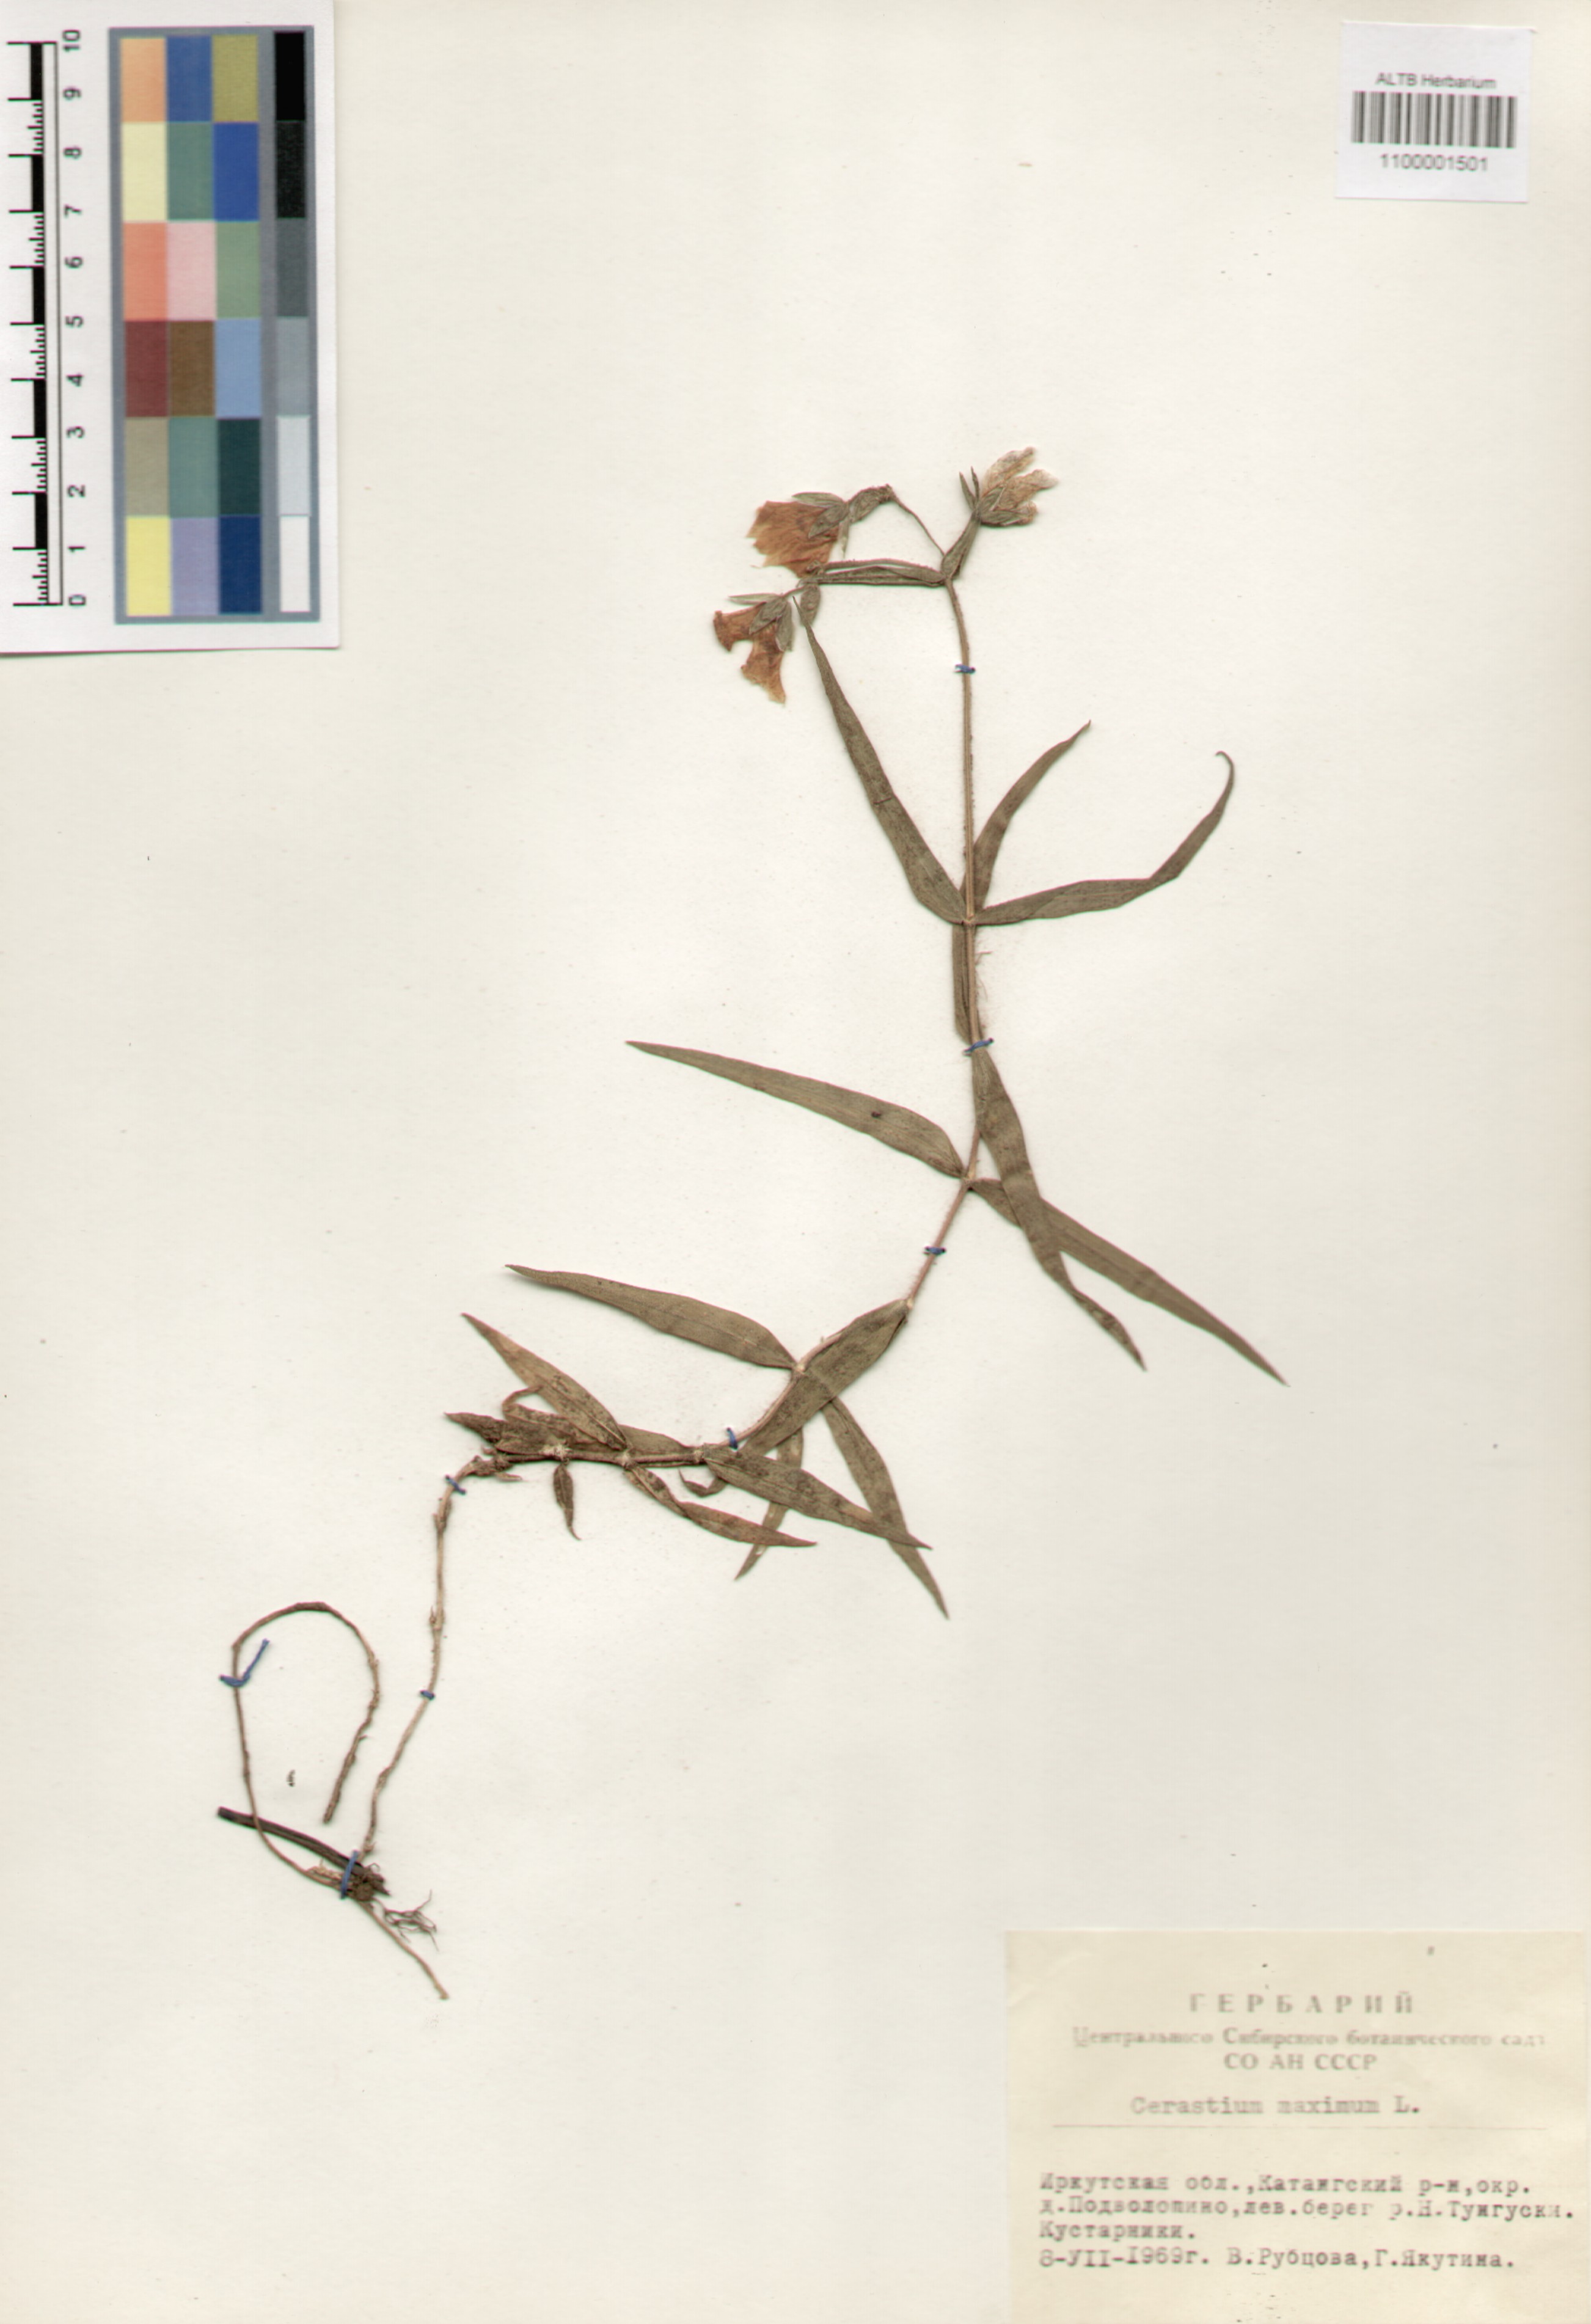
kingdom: Plantae
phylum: Tracheophyta
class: Magnoliopsida
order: Caryophyllales
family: Caryophyllaceae
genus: Dichodon
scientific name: Dichodon maximum
